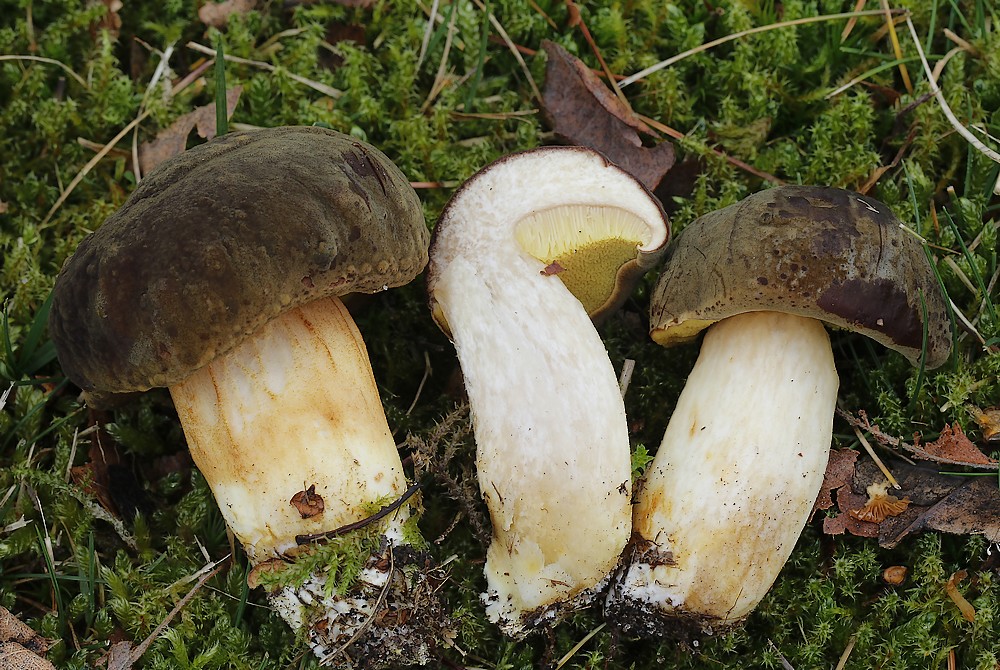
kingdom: Fungi
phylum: Basidiomycota
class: Agaricomycetes
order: Boletales
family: Boletaceae
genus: Xerocomus
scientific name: Xerocomus ferrugineus
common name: vaskeskinds-rørhat
